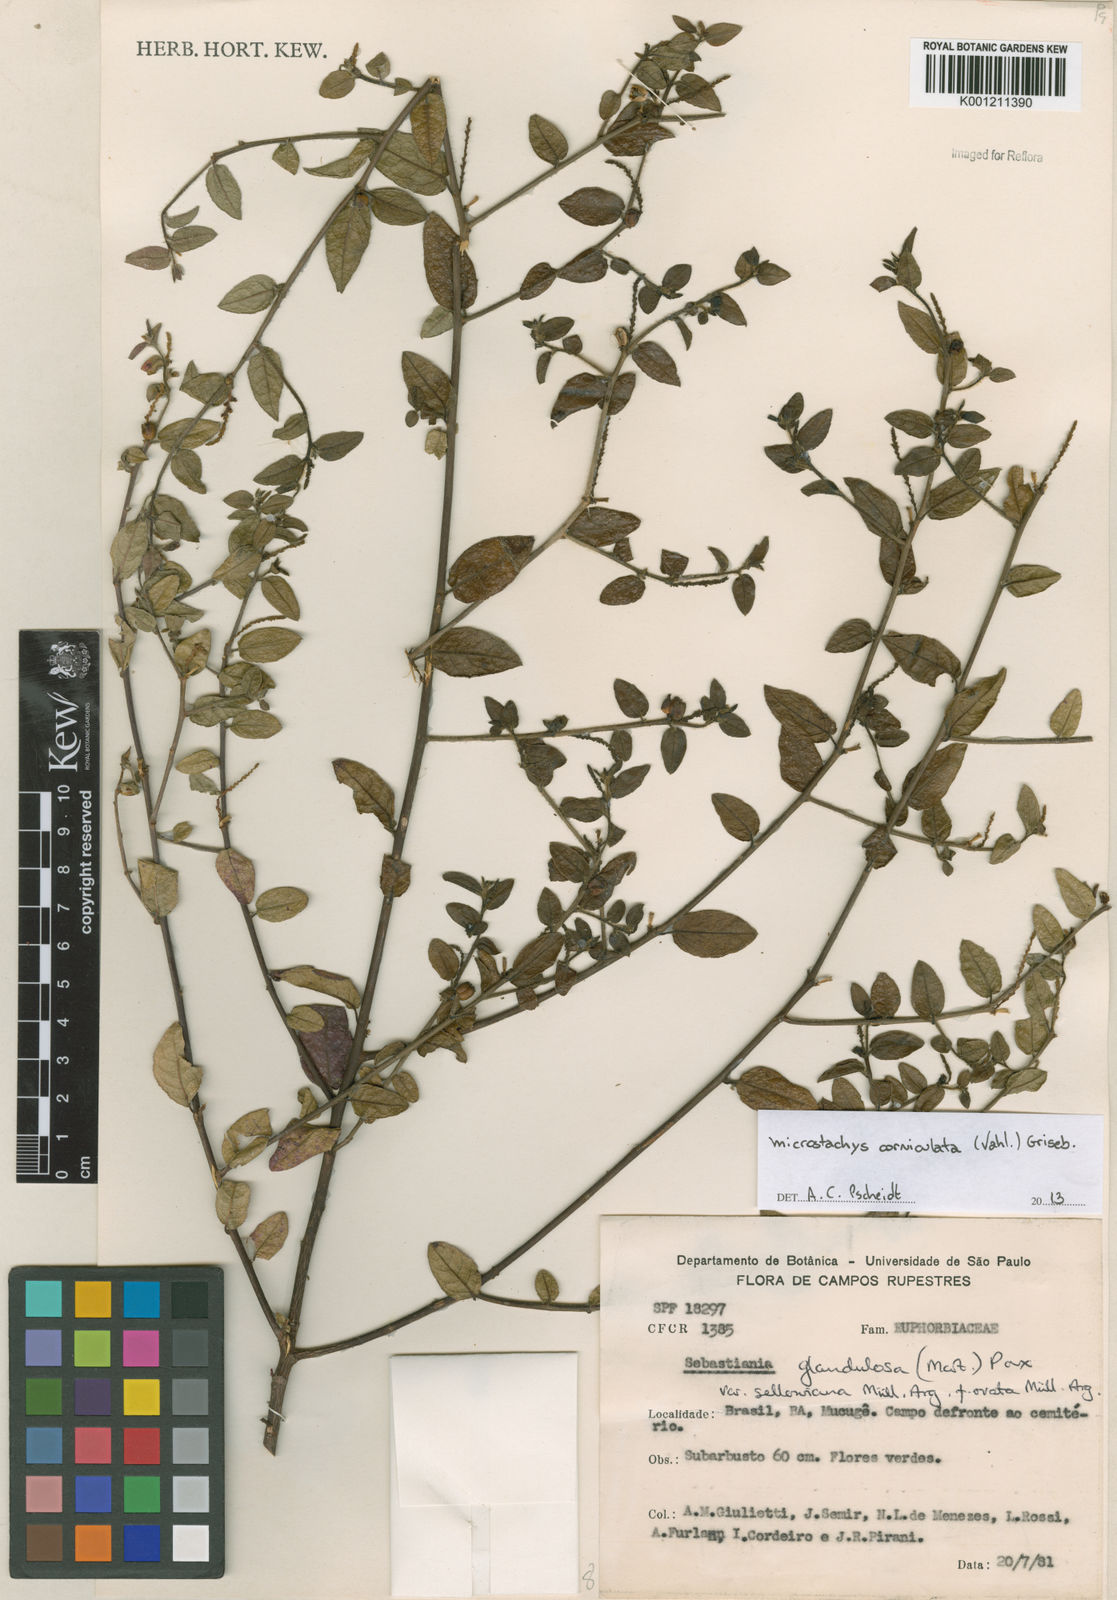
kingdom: Plantae
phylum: Tracheophyta
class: Magnoliopsida
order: Malpighiales
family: Euphorbiaceae
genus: Microstachys
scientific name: Microstachys corniculata
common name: Hato tejas
